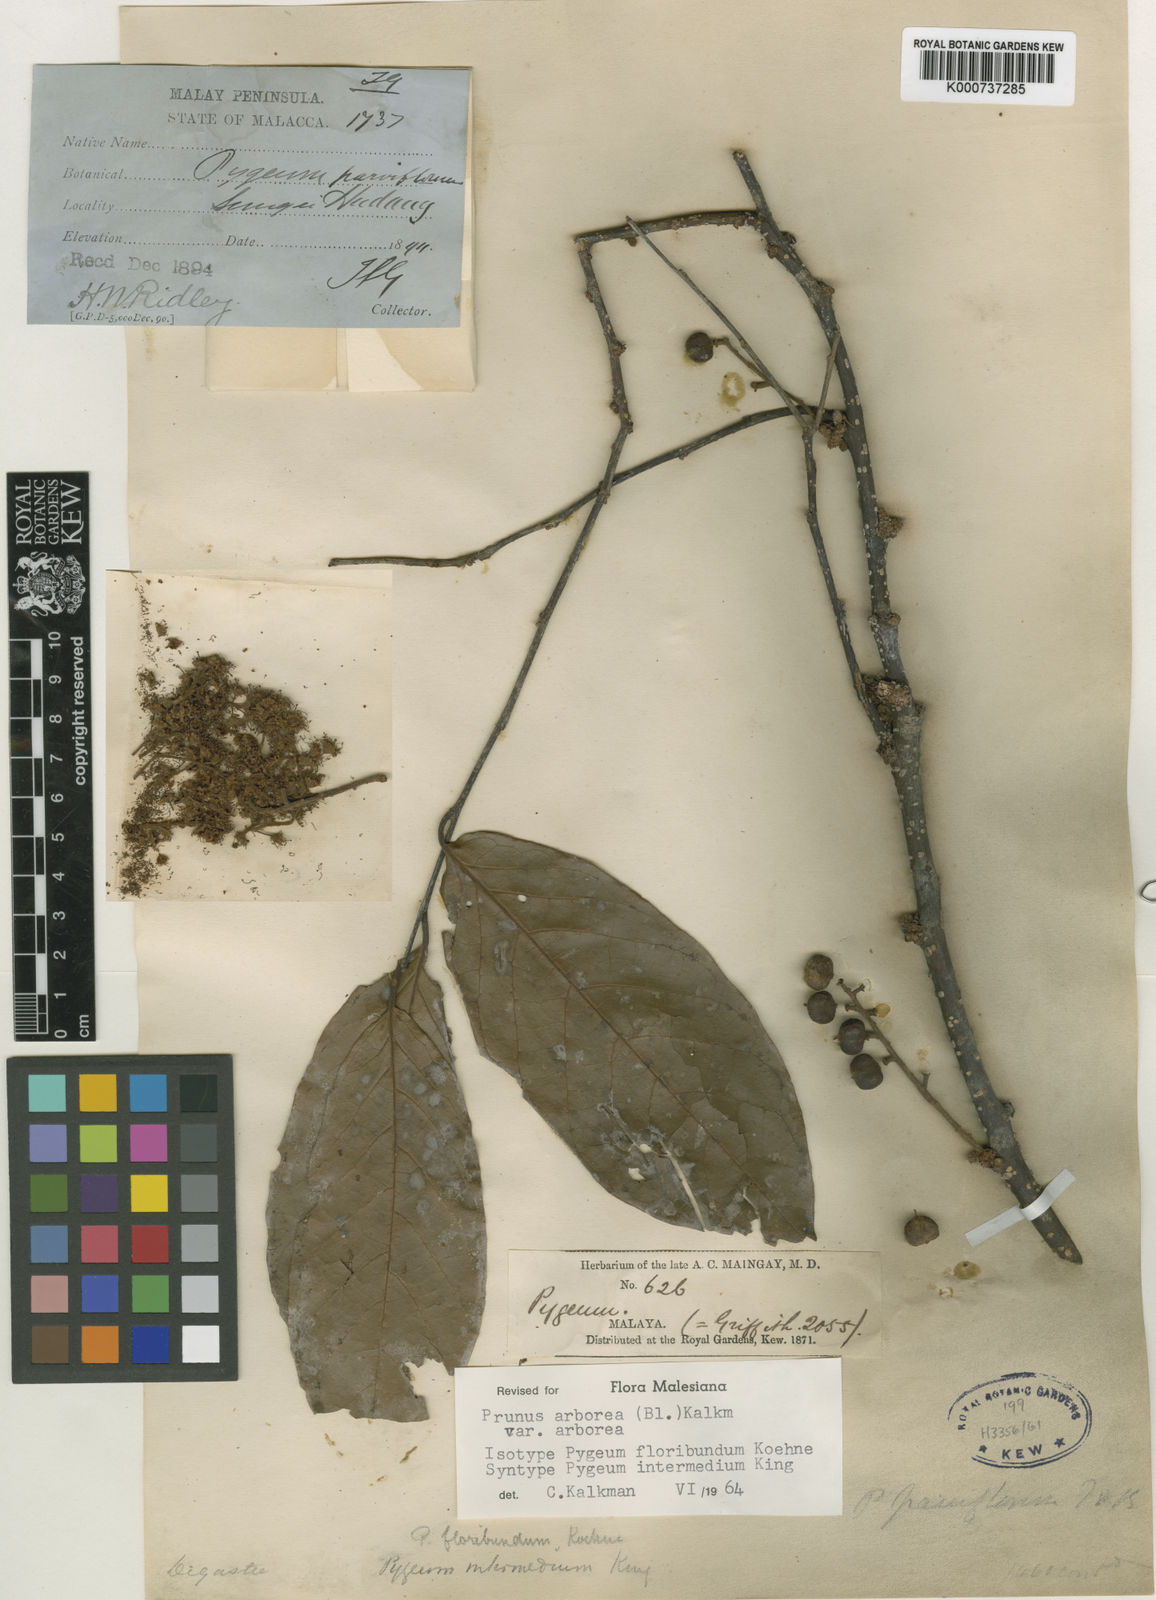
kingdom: Plantae
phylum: Tracheophyta
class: Magnoliopsida
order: Rosales
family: Rosaceae
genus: Prunus
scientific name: Prunus arborea
